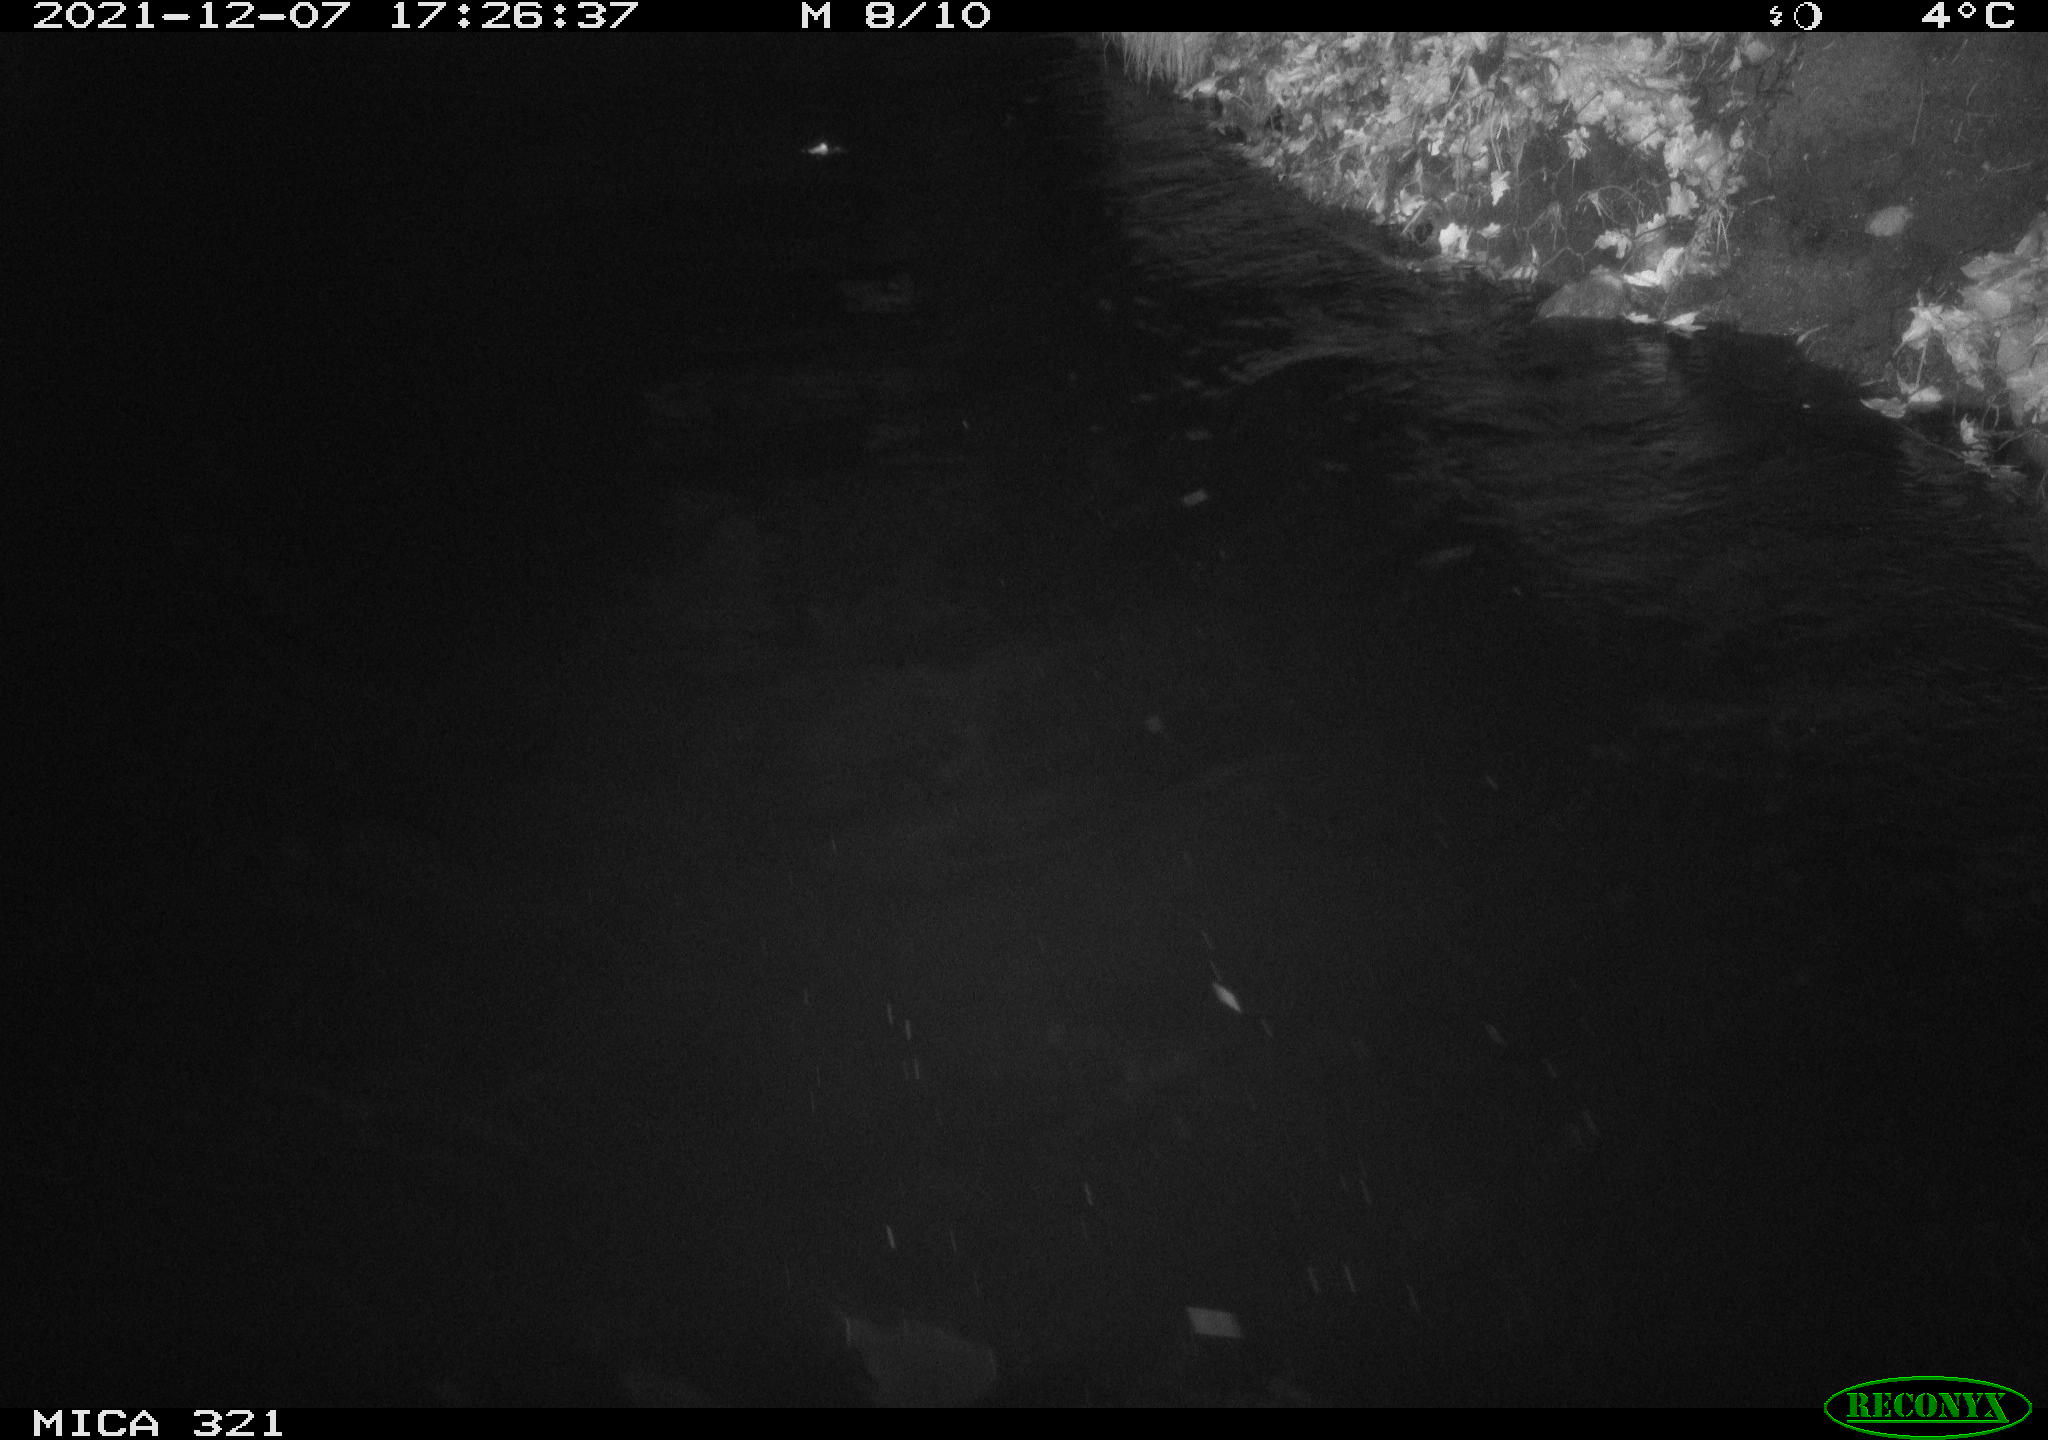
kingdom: Animalia
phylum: Chordata
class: Aves
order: Anseriformes
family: Anatidae
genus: Anas
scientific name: Anas
